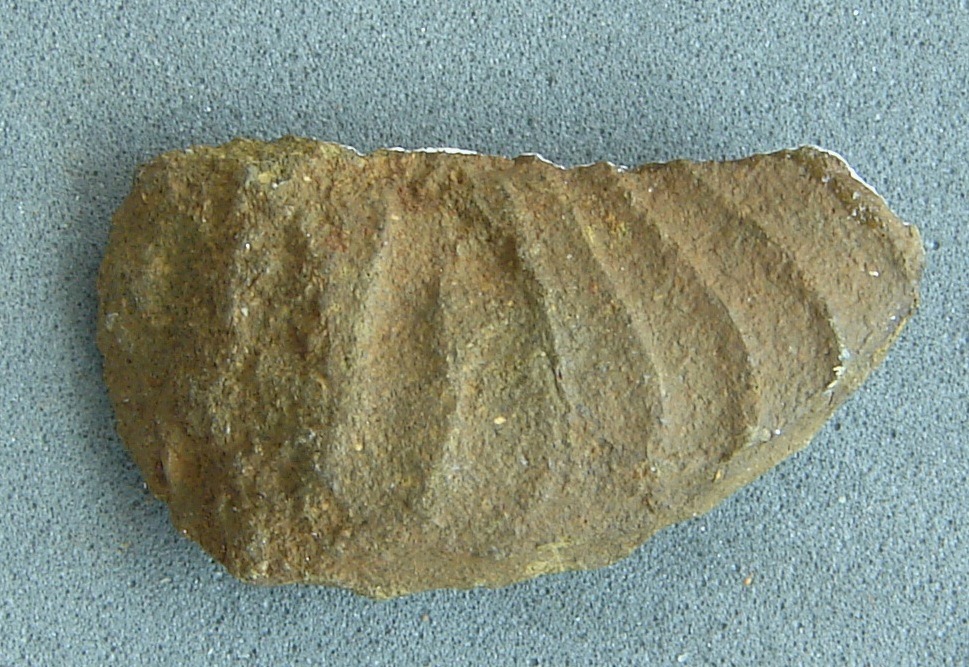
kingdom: Animalia
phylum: Mollusca
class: Cephalopoda
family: Hildoceratidae
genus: Dumortieria
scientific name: Dumortieria
